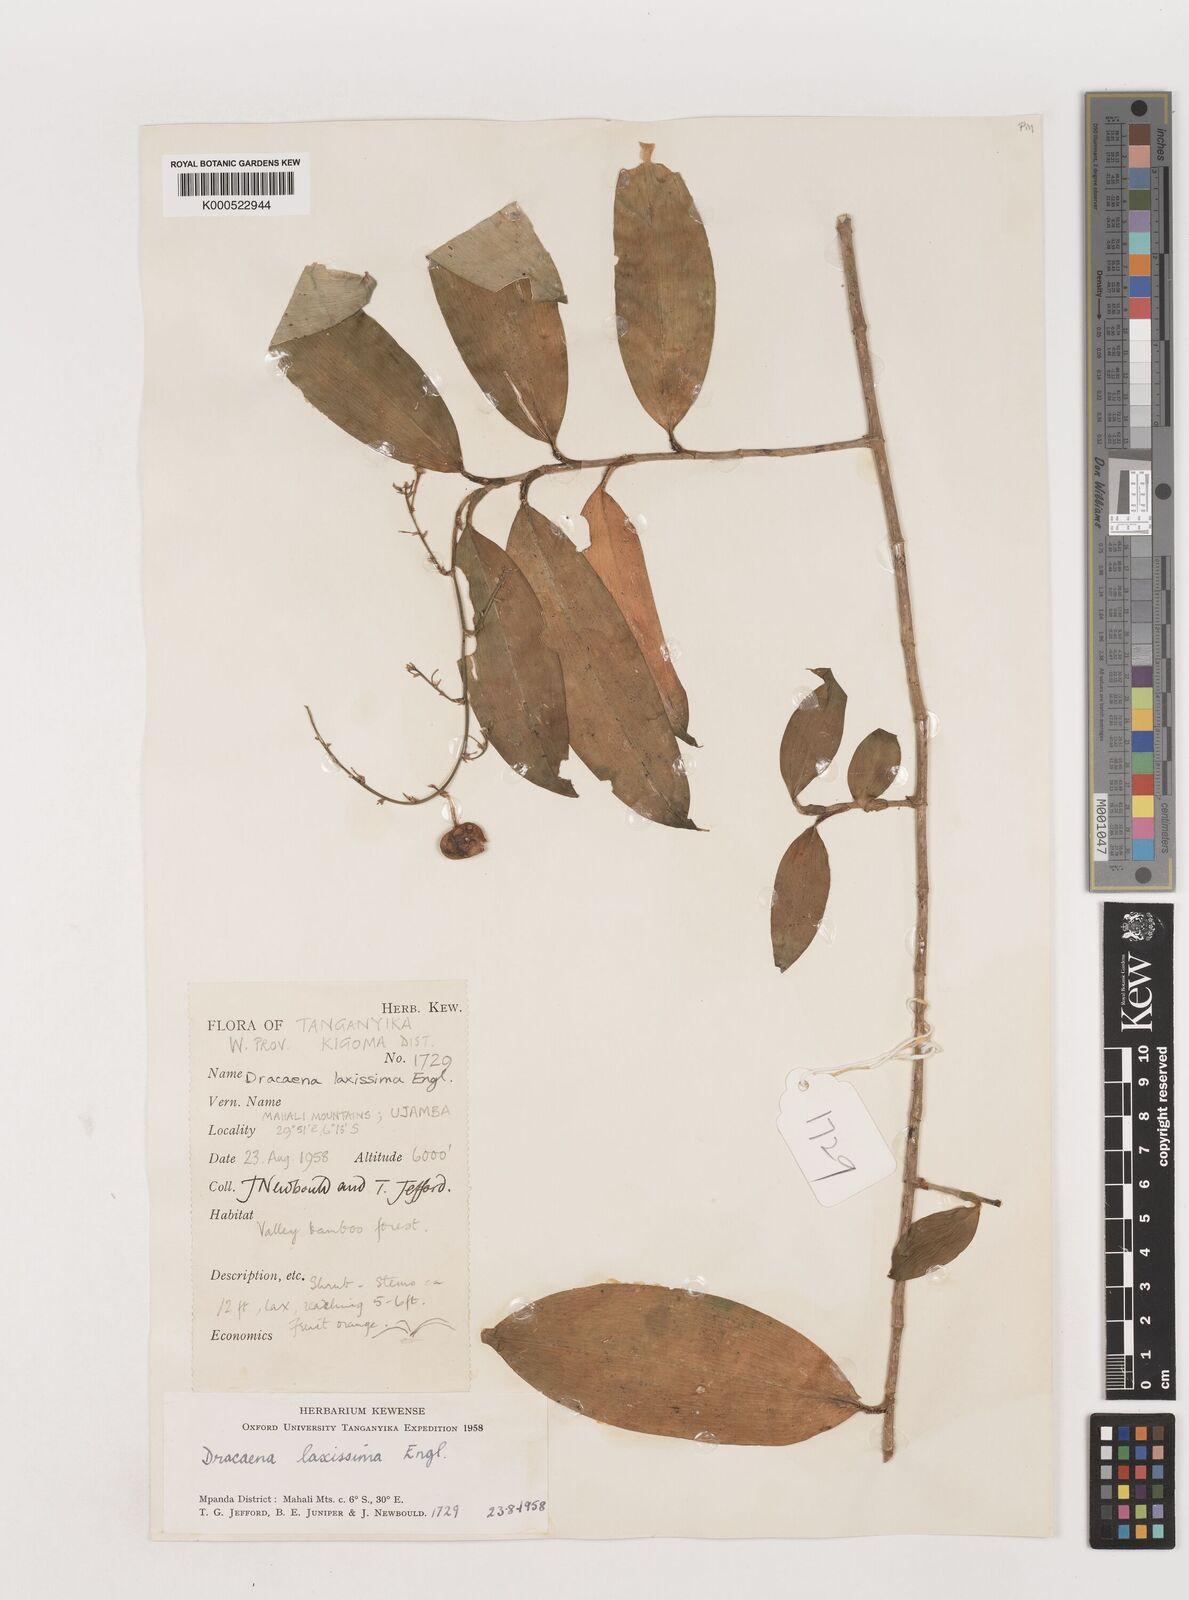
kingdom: Plantae
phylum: Tracheophyta
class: Liliopsida
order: Asparagales
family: Asparagaceae
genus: Dracaena
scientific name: Dracaena laxissima
